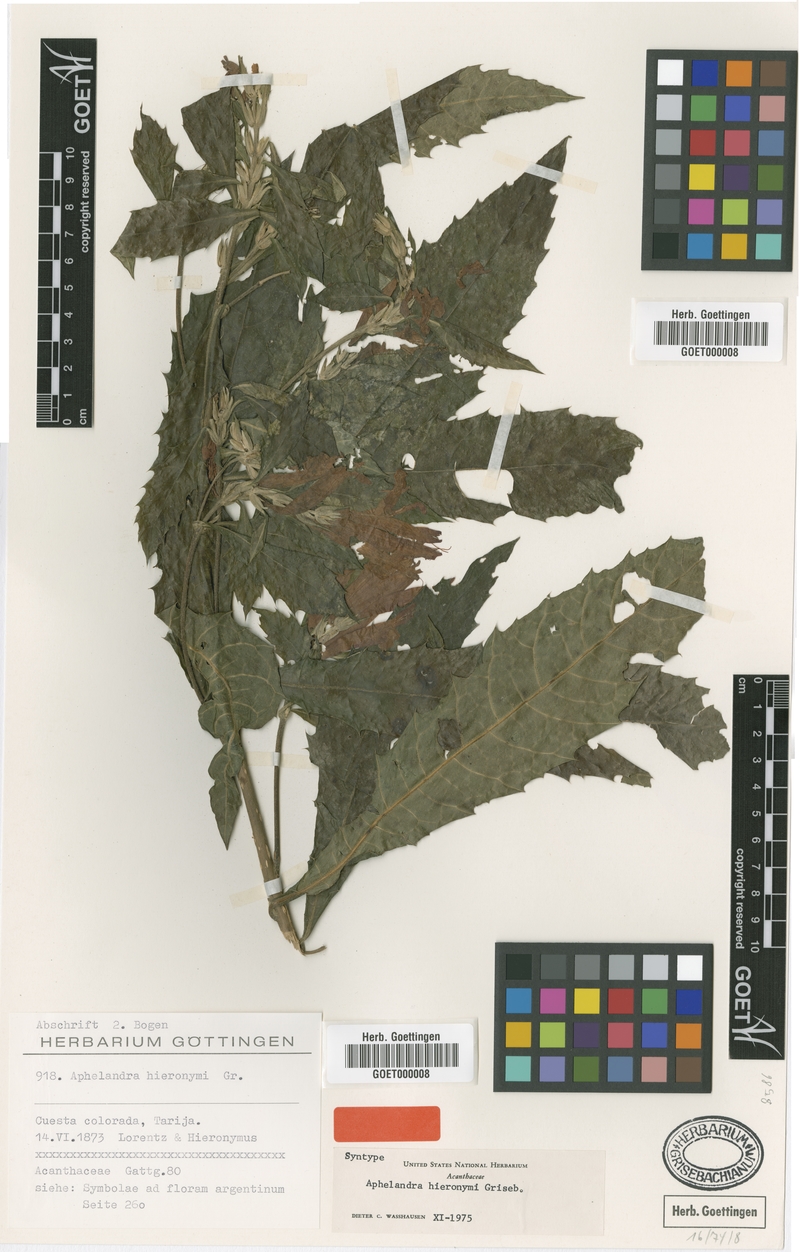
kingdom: Plantae
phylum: Tracheophyta
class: Magnoliopsida
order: Lamiales
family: Acanthaceae
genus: Aphelandra
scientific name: Aphelandra hieronymi
